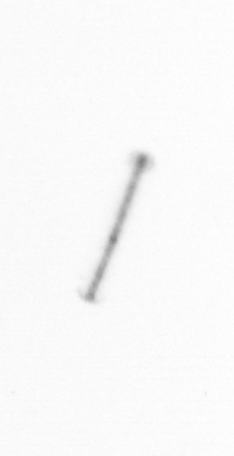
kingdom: Chromista
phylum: Ochrophyta
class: Bacillariophyceae
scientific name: Bacillariophyceae
